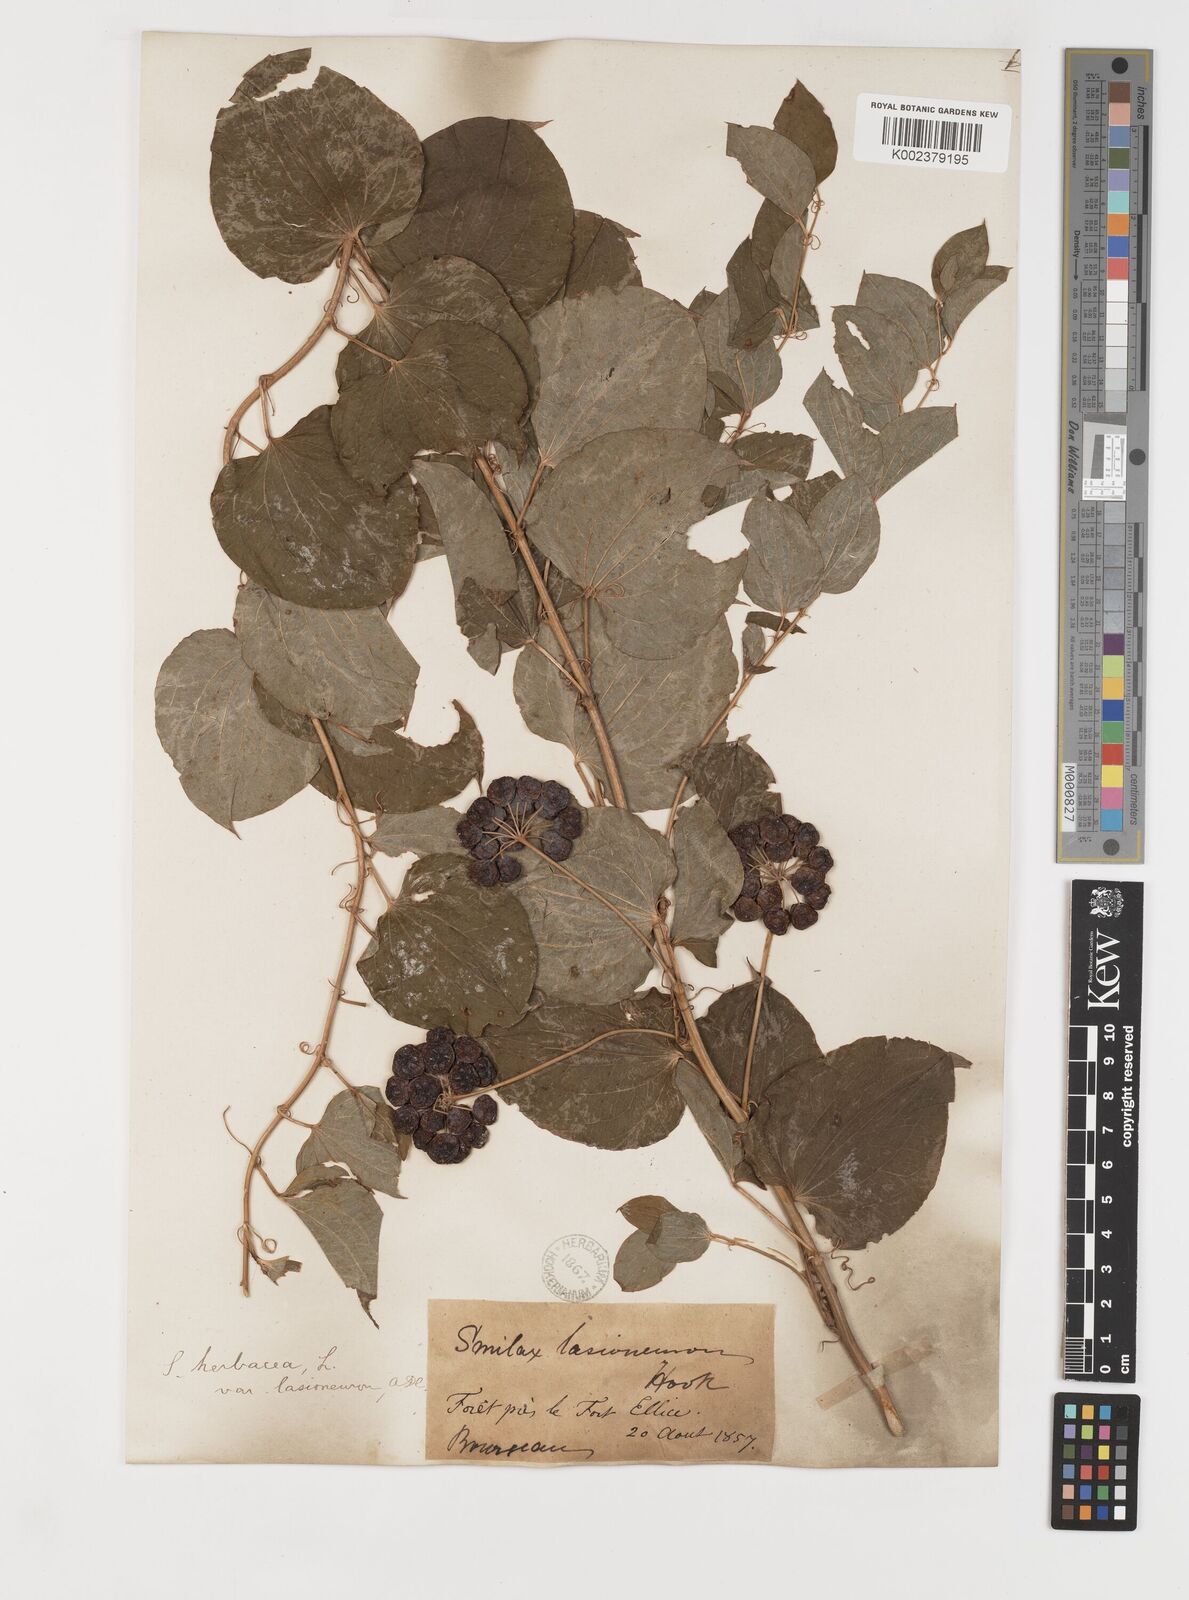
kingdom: Plantae
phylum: Tracheophyta
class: Liliopsida
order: Liliales
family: Smilacaceae
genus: Smilax
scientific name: Smilax lasioneura
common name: Blue ridge carrionflower
